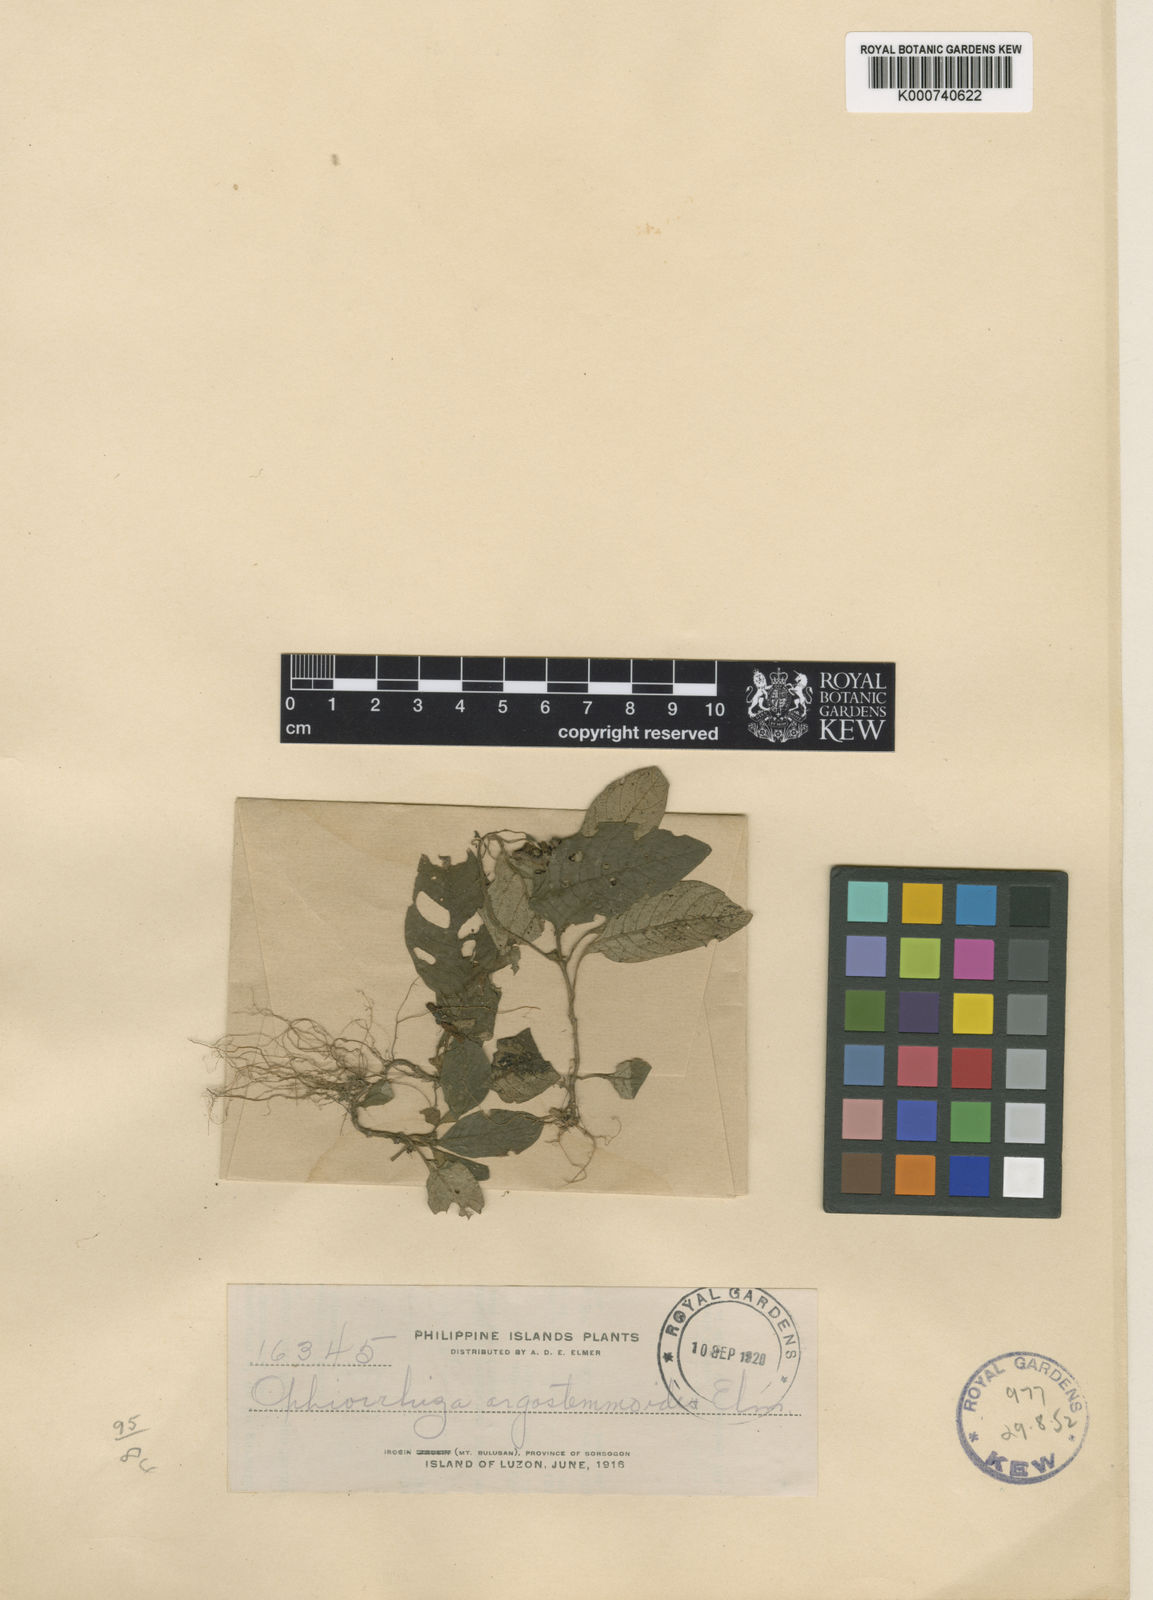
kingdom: Plantae
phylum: Tracheophyta
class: Magnoliopsida
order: Gentianales
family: Rubiaceae
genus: Ophiorrhiza
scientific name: Ophiorrhiza argostemmoides
